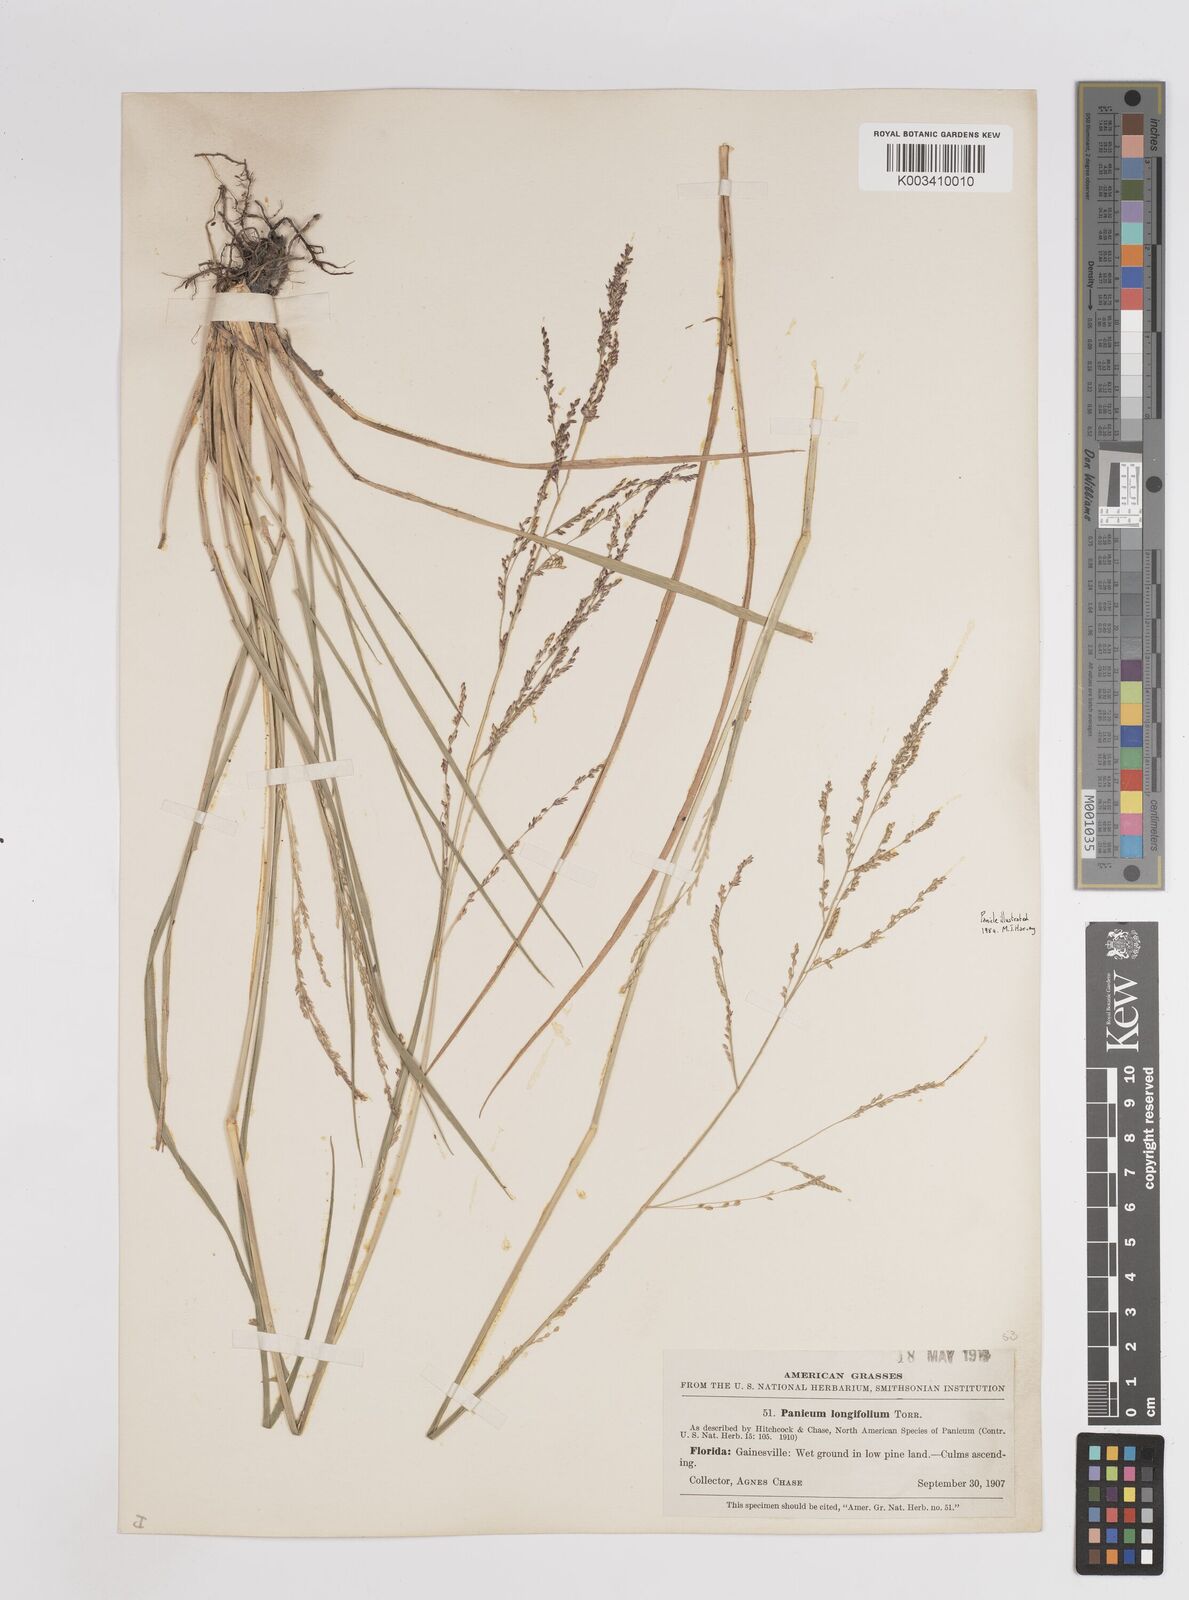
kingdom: Plantae
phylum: Tracheophyta
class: Liliopsida
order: Poales
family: Poaceae
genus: Coleataenia
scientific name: Coleataenia longifolia
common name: Long-leaved panicgrass
